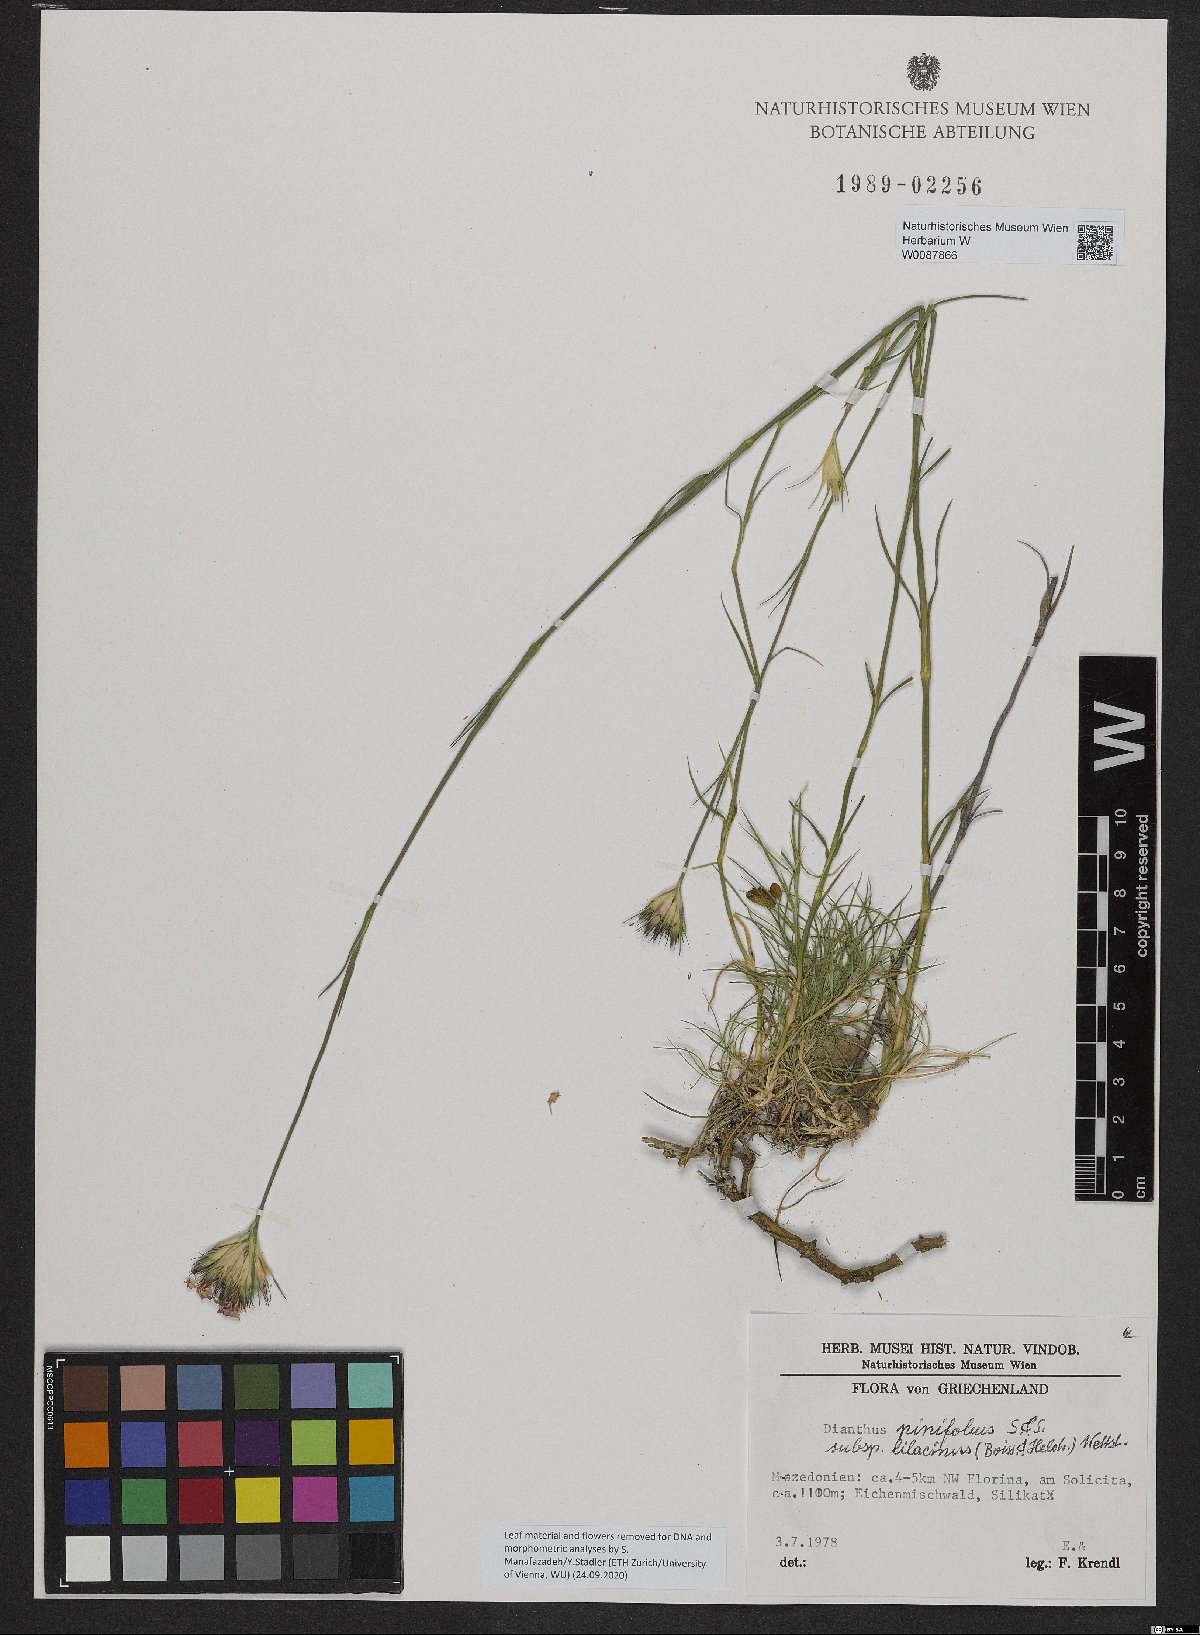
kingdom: Plantae
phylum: Tracheophyta
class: Magnoliopsida
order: Caryophyllales
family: Caryophyllaceae
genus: Dianthus
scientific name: Dianthus pinifolius
